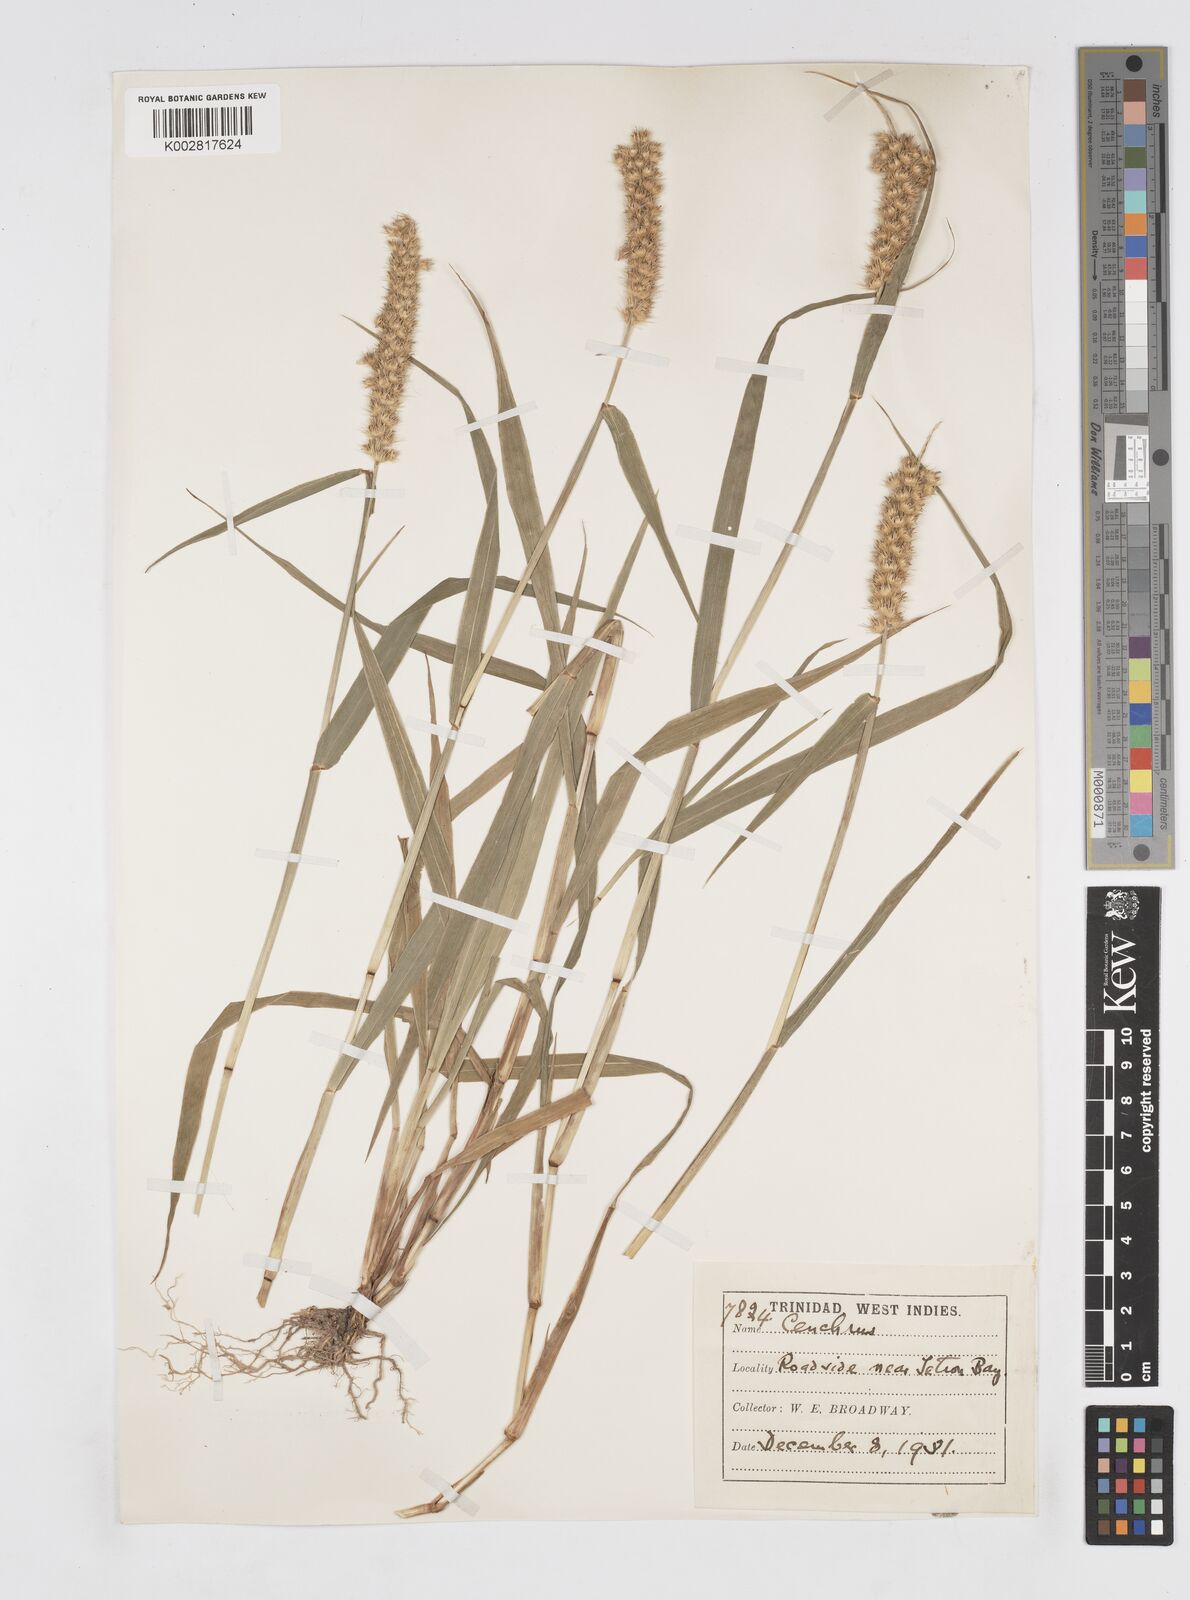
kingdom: Plantae
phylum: Tracheophyta
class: Liliopsida
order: Poales
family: Poaceae
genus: Cenchrus
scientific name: Cenchrus brownii
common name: Slim-bristle sandbur
